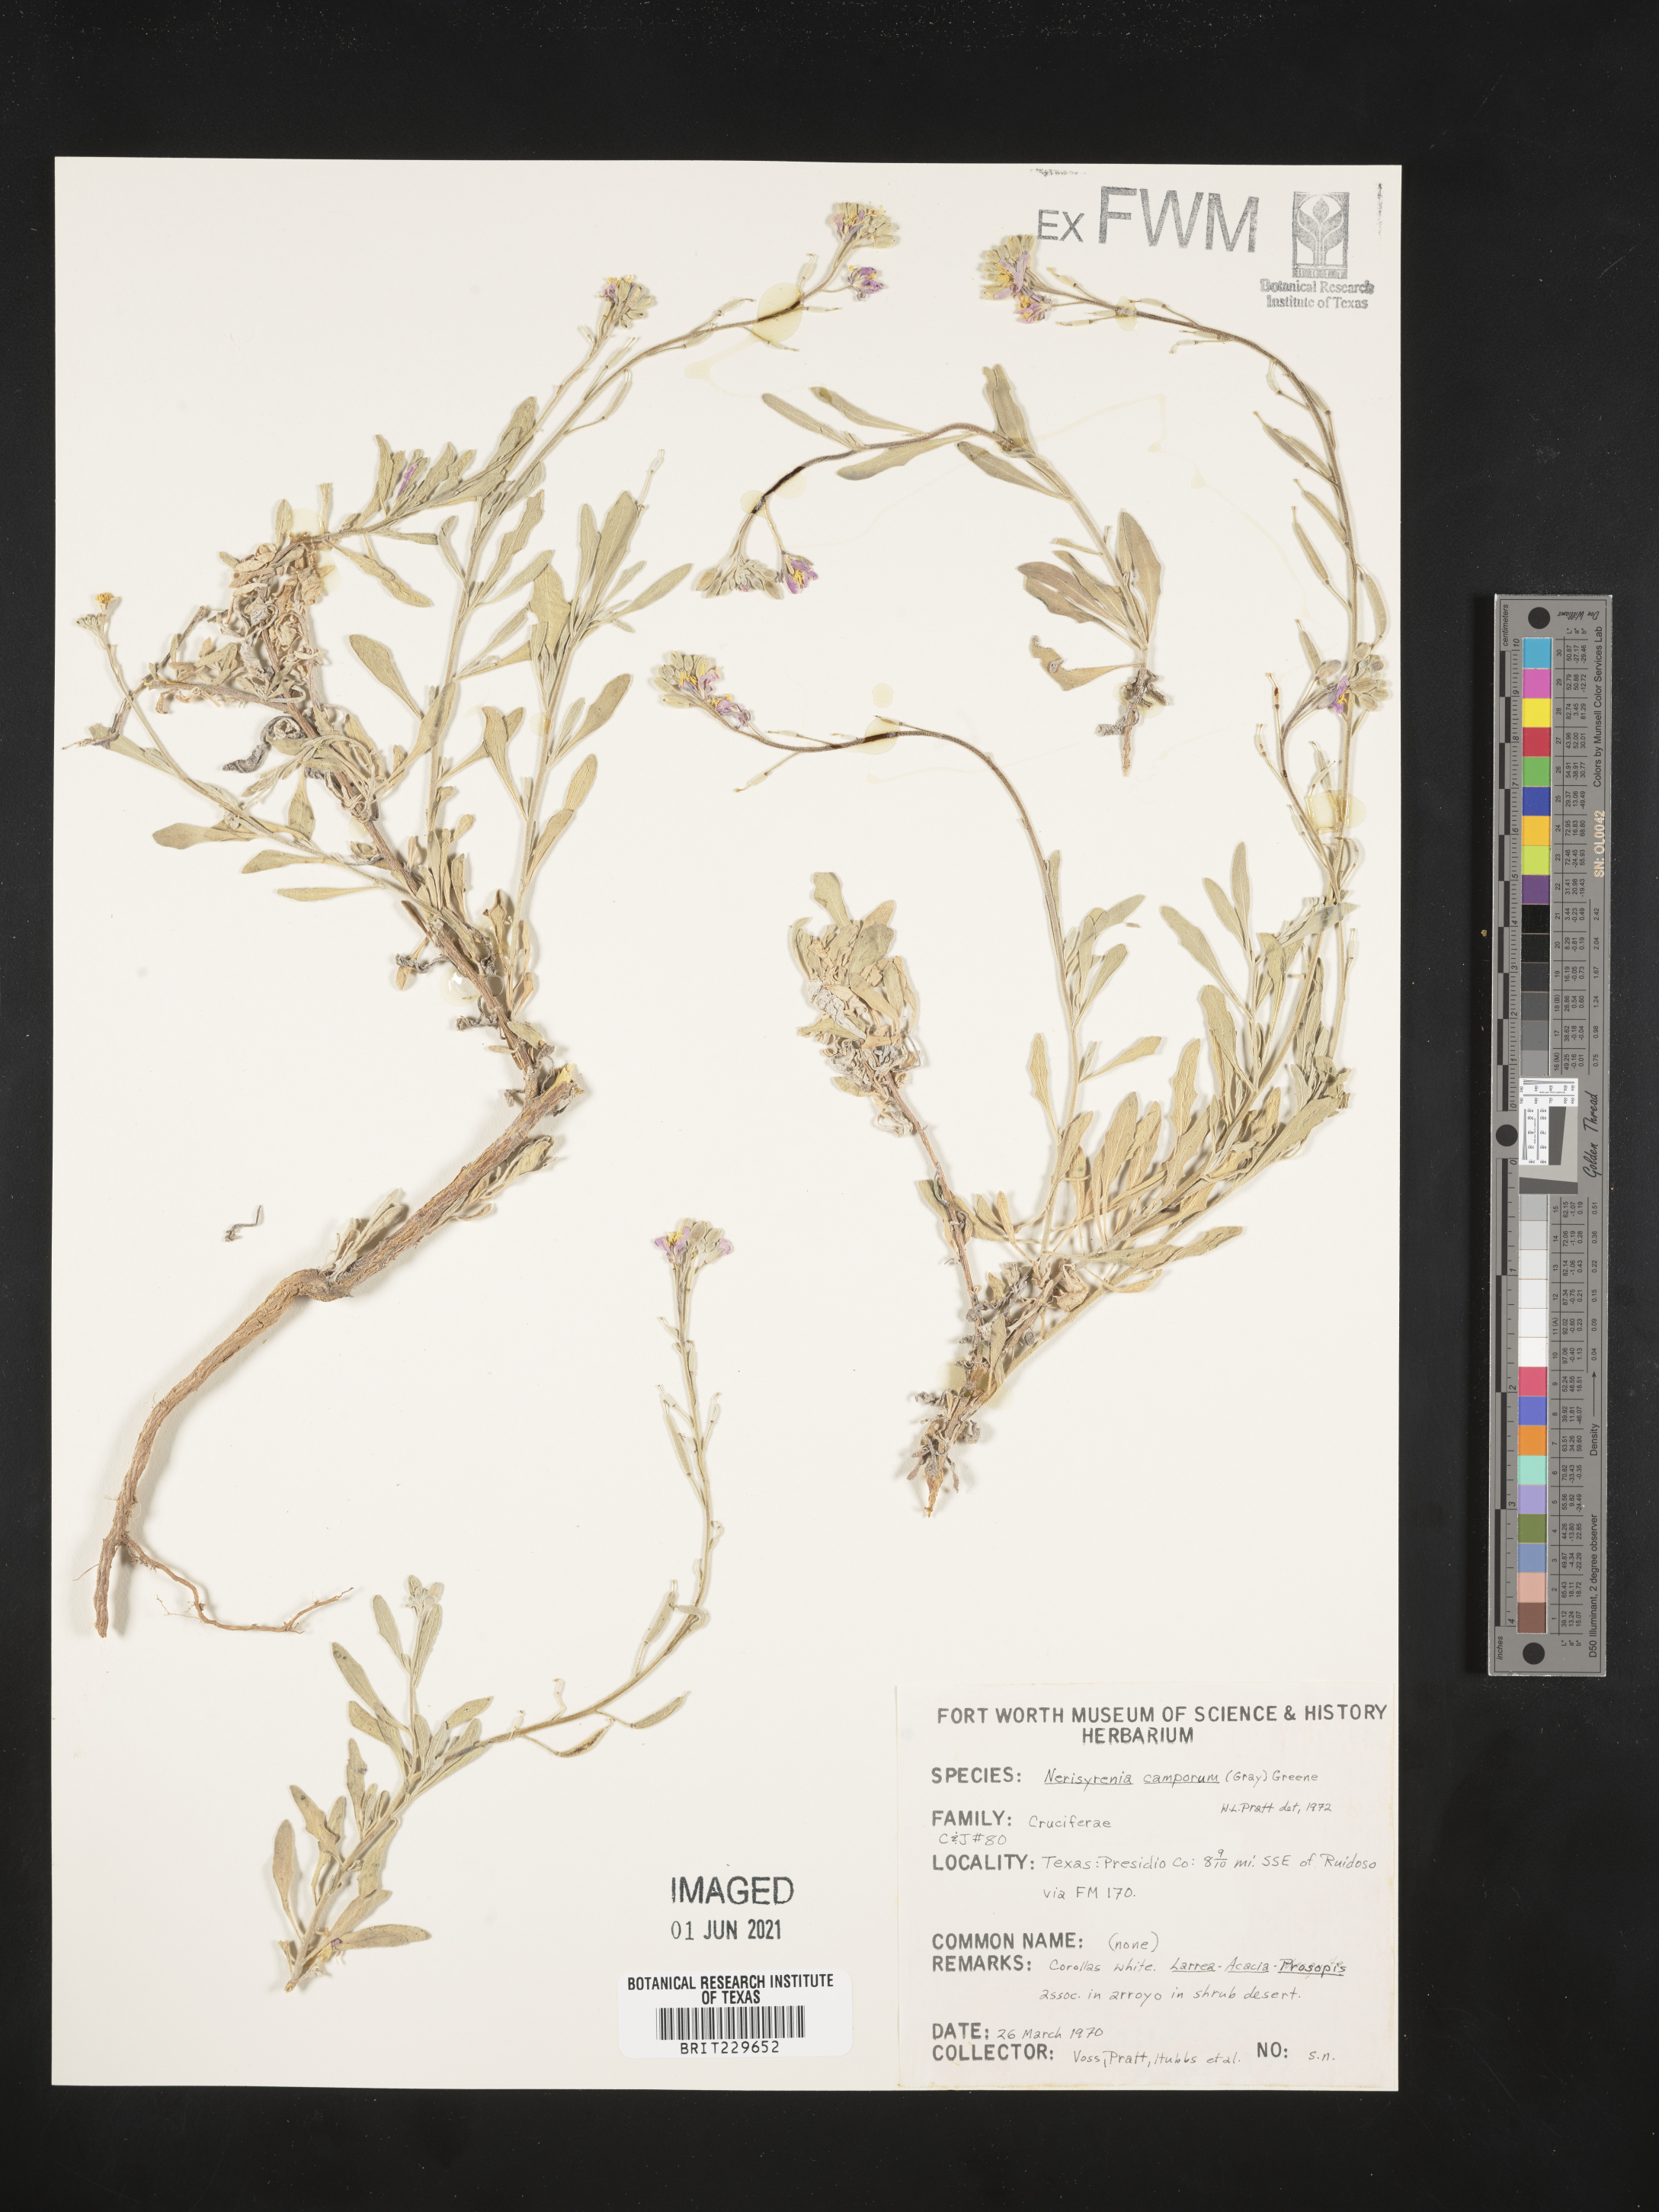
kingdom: Plantae
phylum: Tracheophyta
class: Magnoliopsida
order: Brassicales
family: Brassicaceae
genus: Nerisyrenia
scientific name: Nerisyrenia camporum
